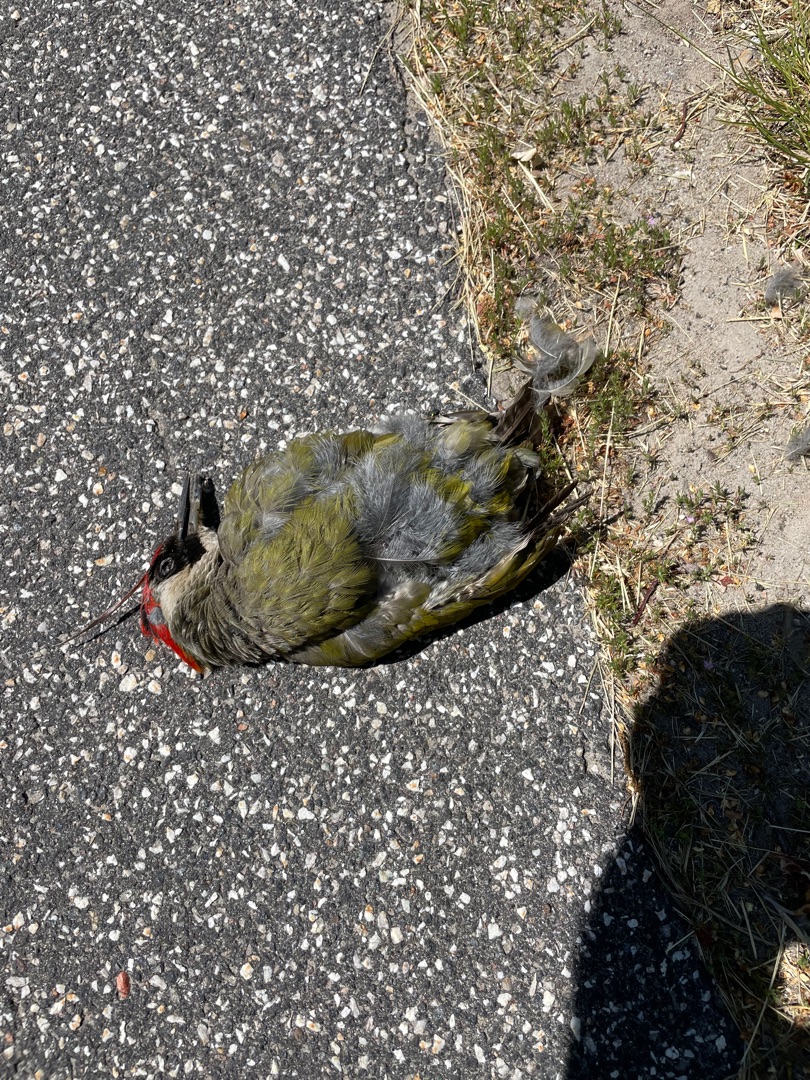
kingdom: Animalia
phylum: Chordata
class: Aves
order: Piciformes
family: Picidae
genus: Picus
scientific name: Picus viridis
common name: Grønspætte
